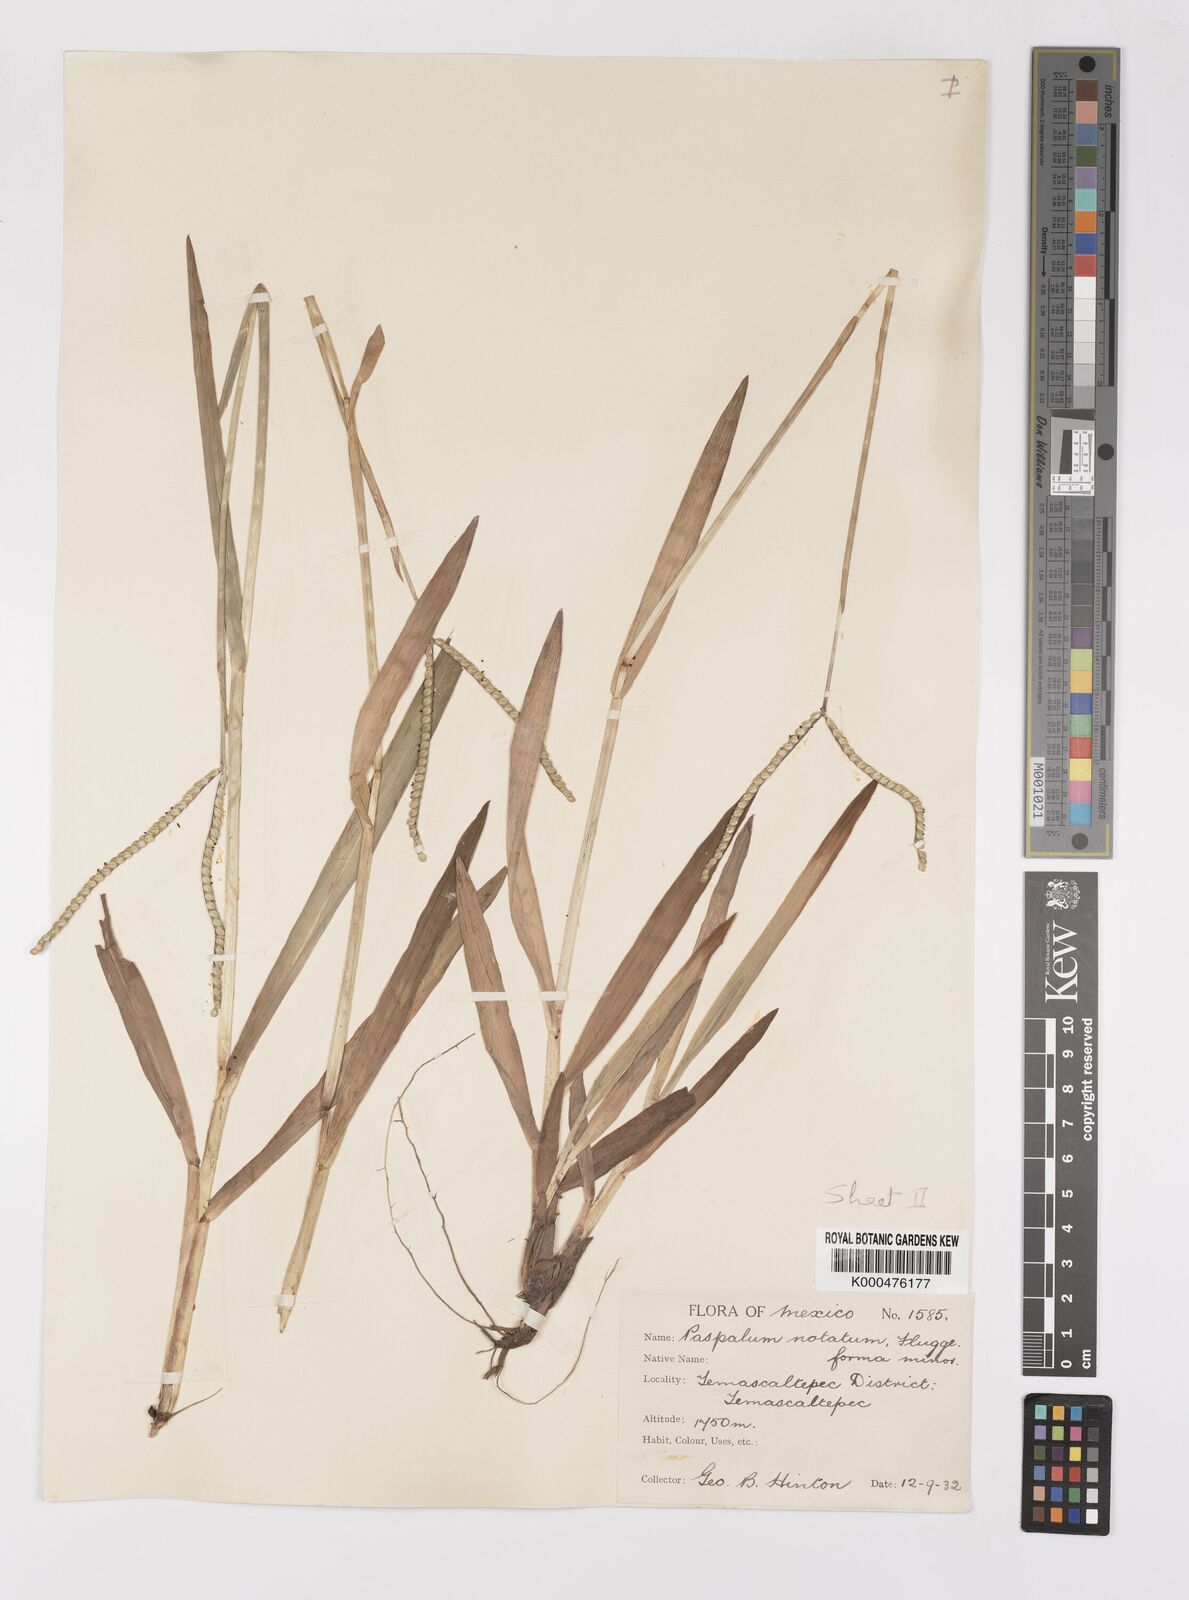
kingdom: Plantae
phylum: Tracheophyta
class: Liliopsida
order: Poales
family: Poaceae
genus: Paspalum
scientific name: Paspalum
